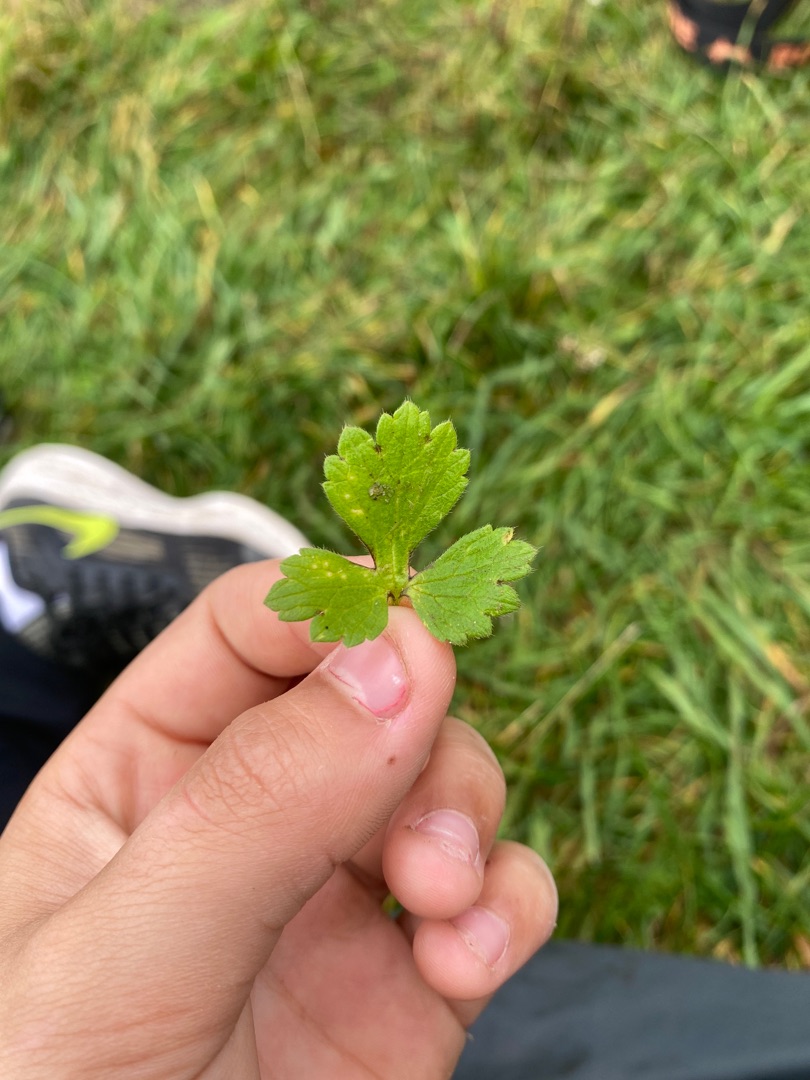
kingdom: Plantae
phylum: Tracheophyta
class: Magnoliopsida
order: Ranunculales
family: Ranunculaceae
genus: Ranunculus
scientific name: Ranunculus bulbosus
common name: Knold-ranunkel
